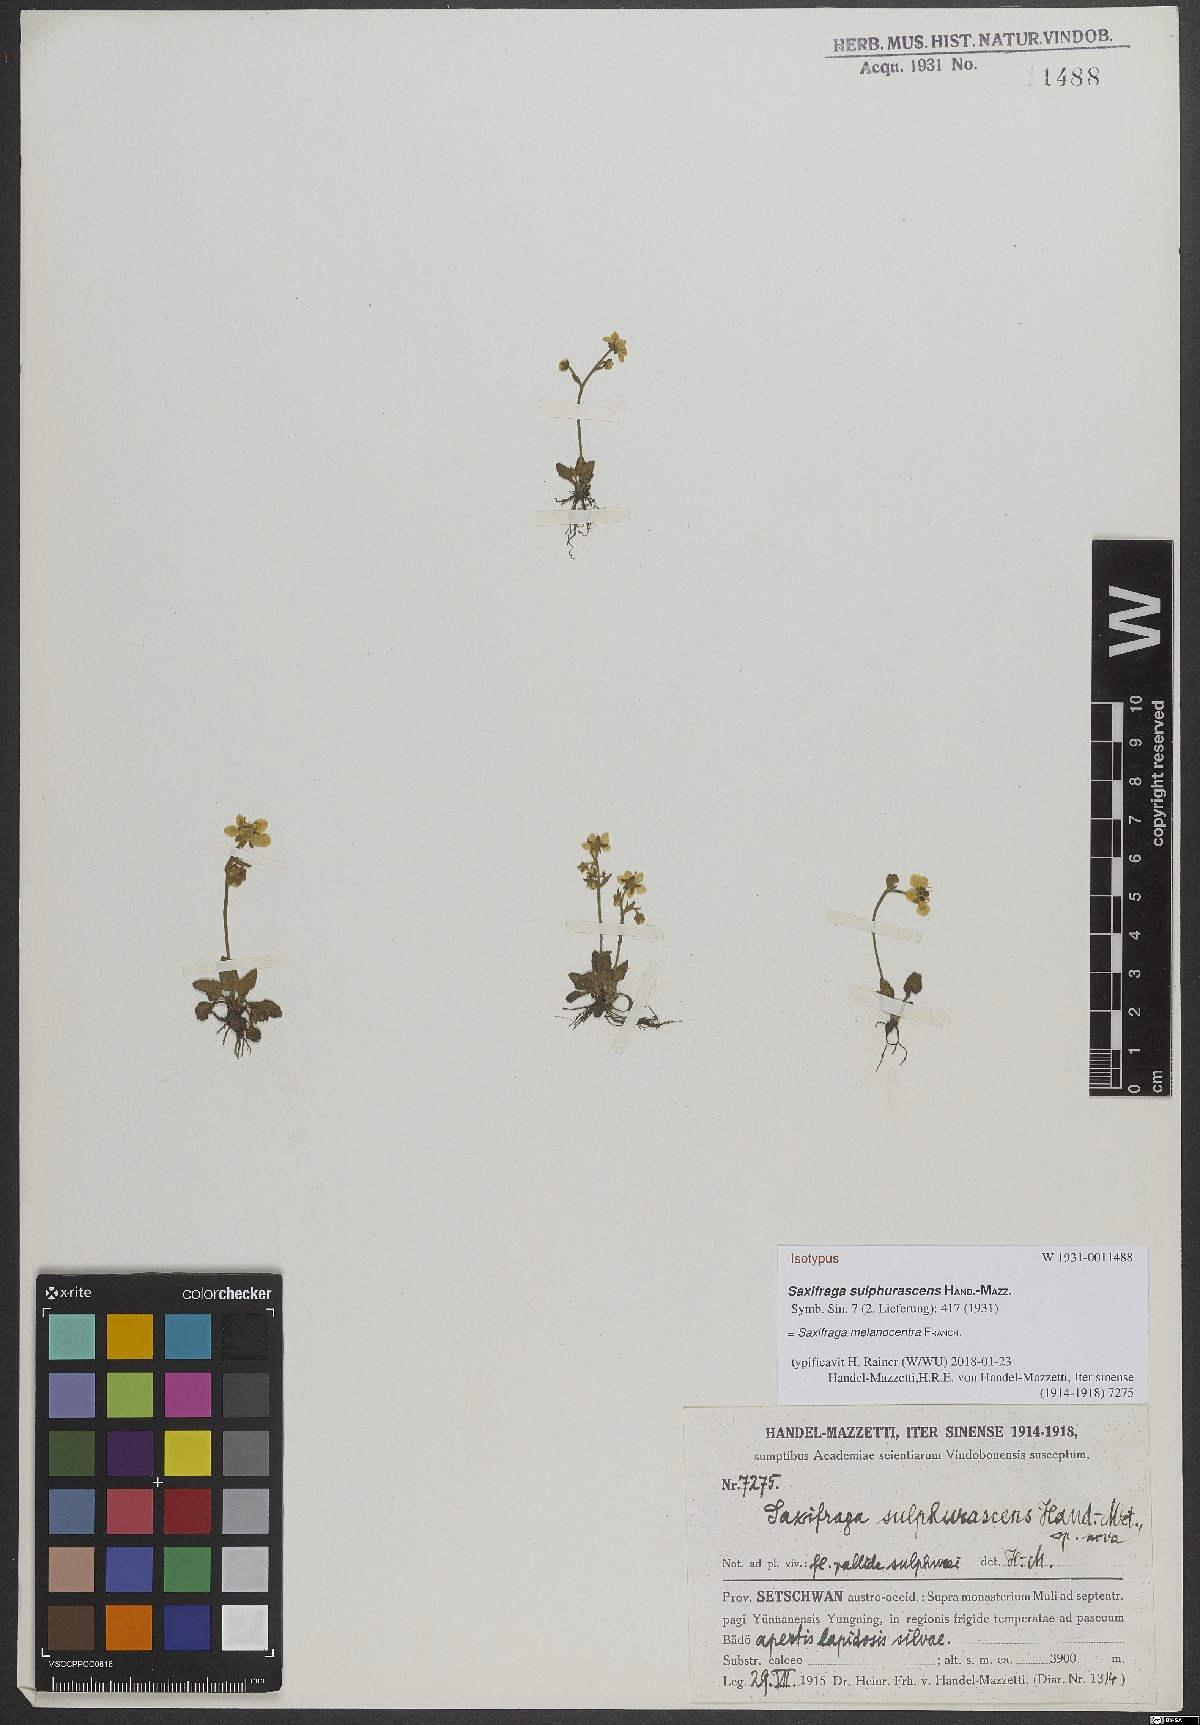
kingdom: Plantae
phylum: Tracheophyta
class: Magnoliopsida
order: Saxifragales
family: Saxifragaceae
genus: Micranthes
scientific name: Micranthes melanocentra
